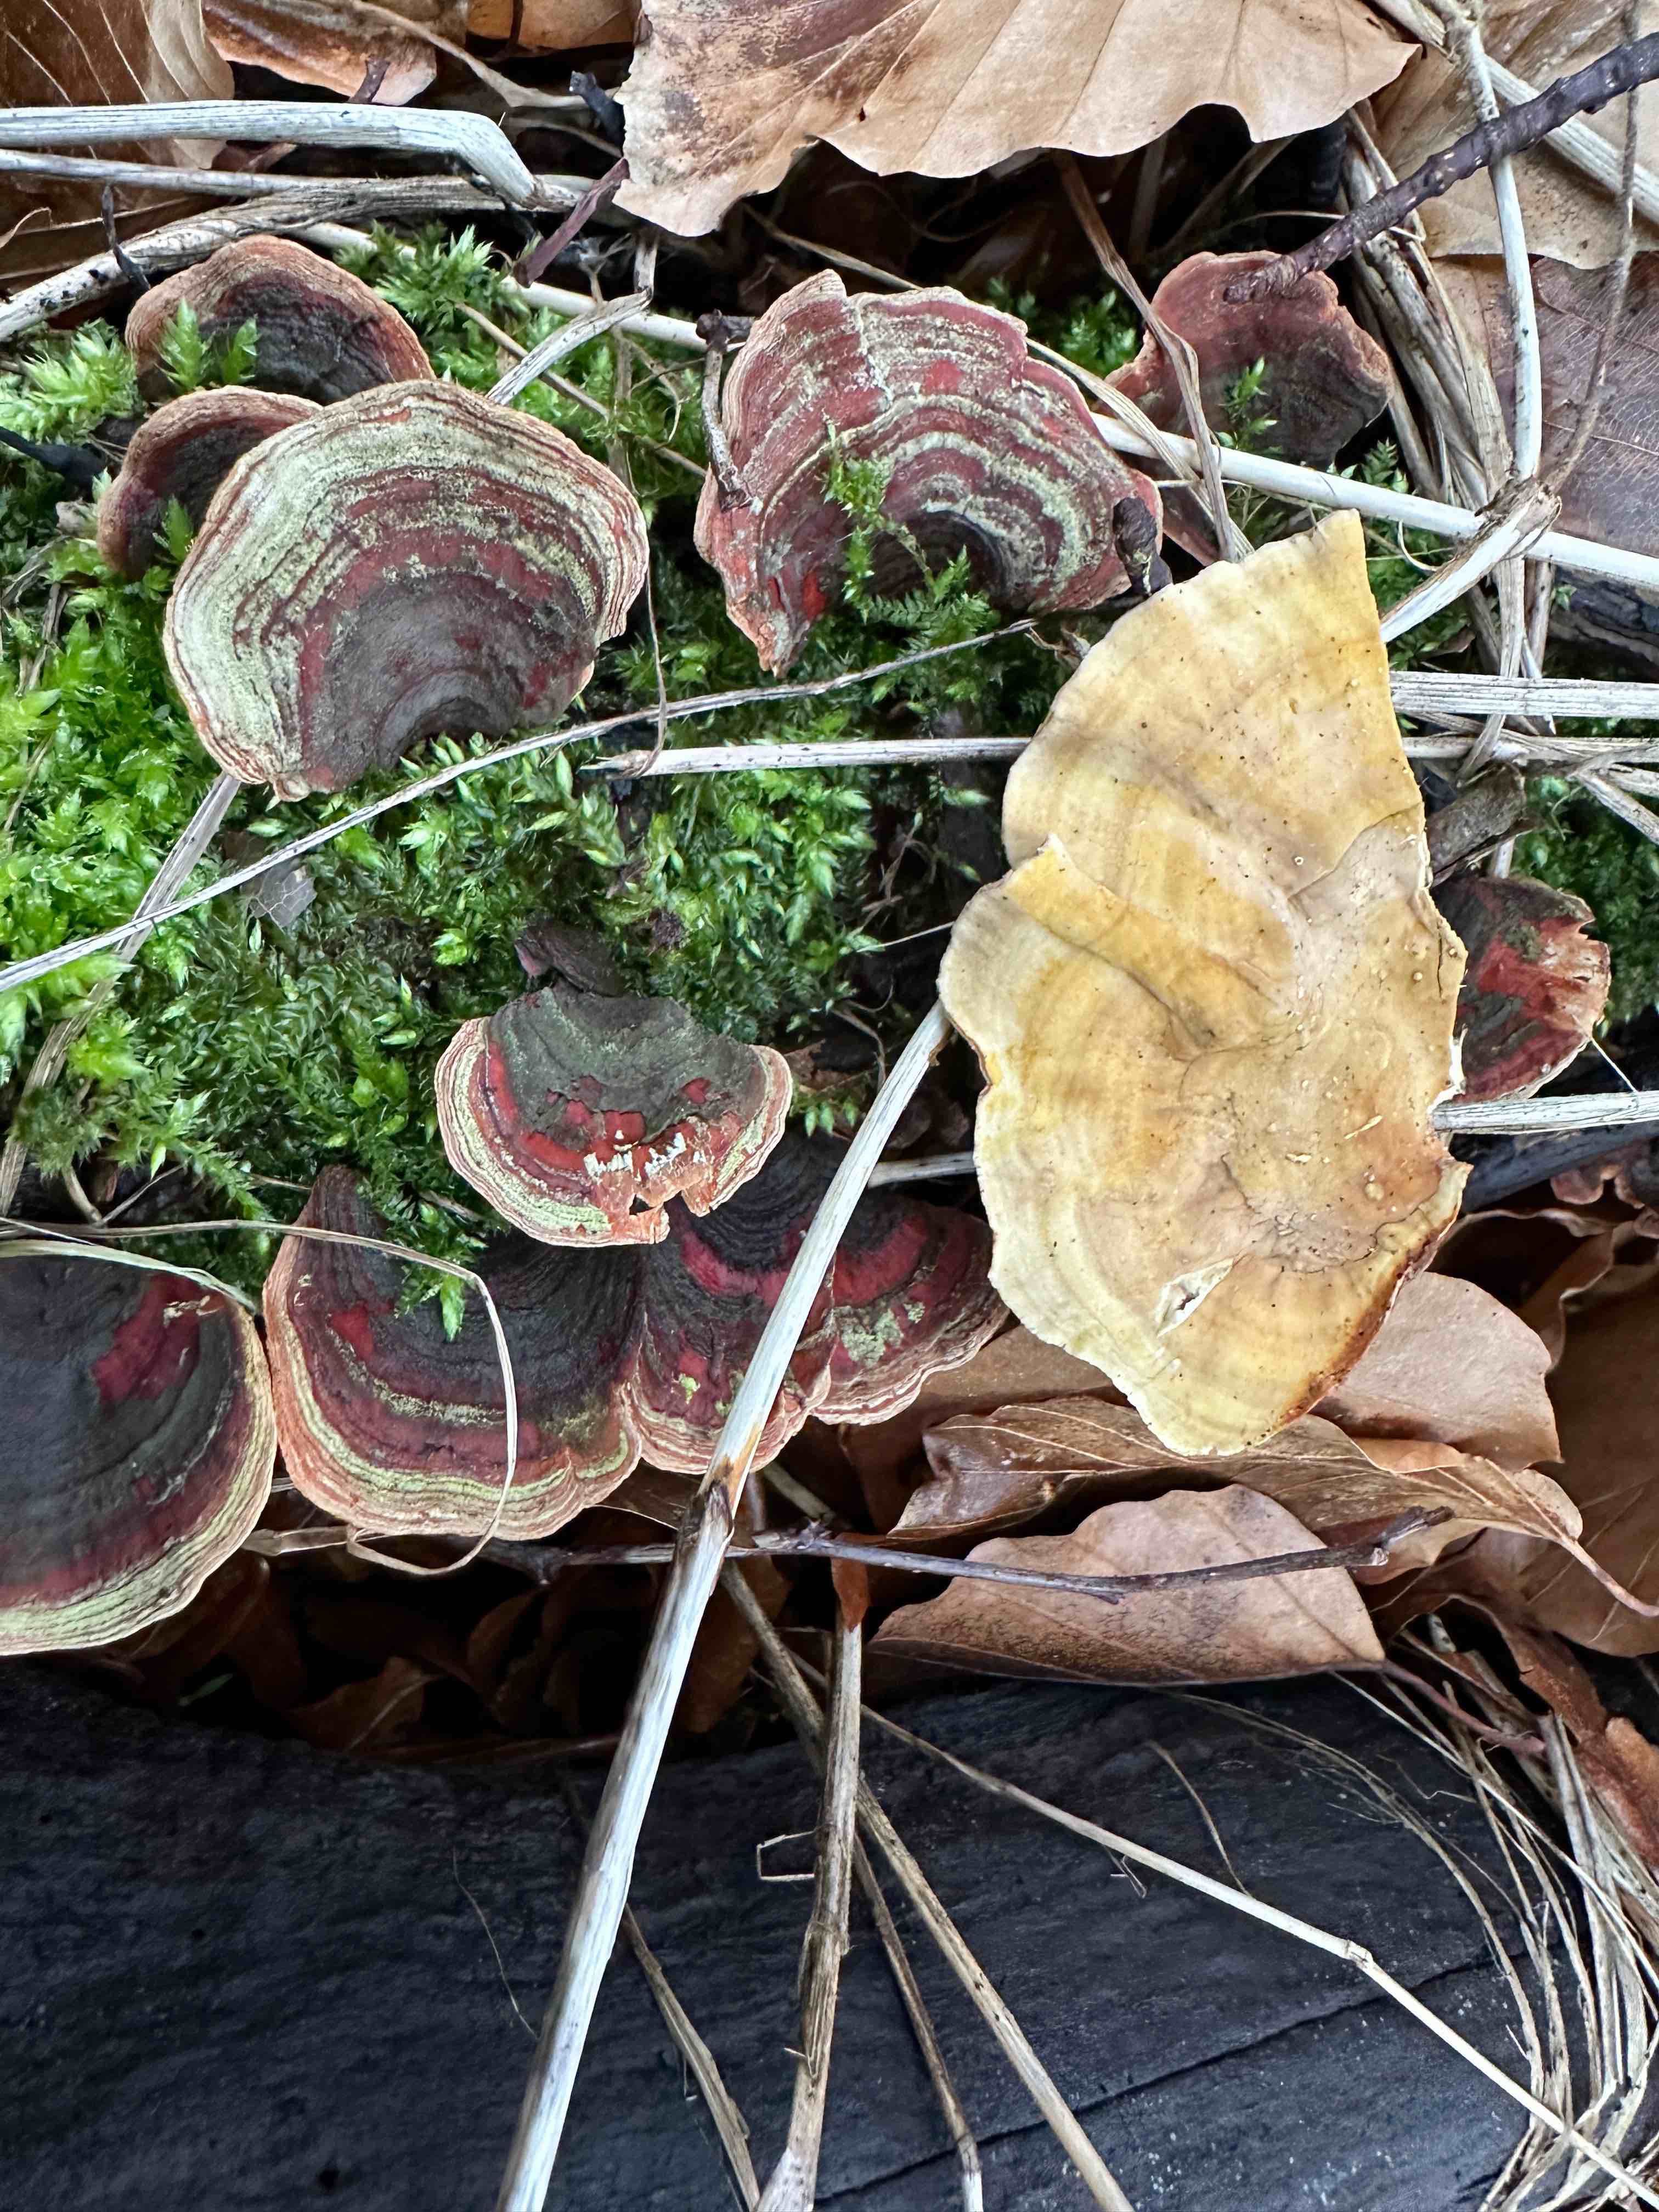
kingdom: Fungi
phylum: Basidiomycota
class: Agaricomycetes
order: Russulales
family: Stereaceae
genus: Stereum
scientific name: Stereum subtomentosum
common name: smuk lædersvamp
